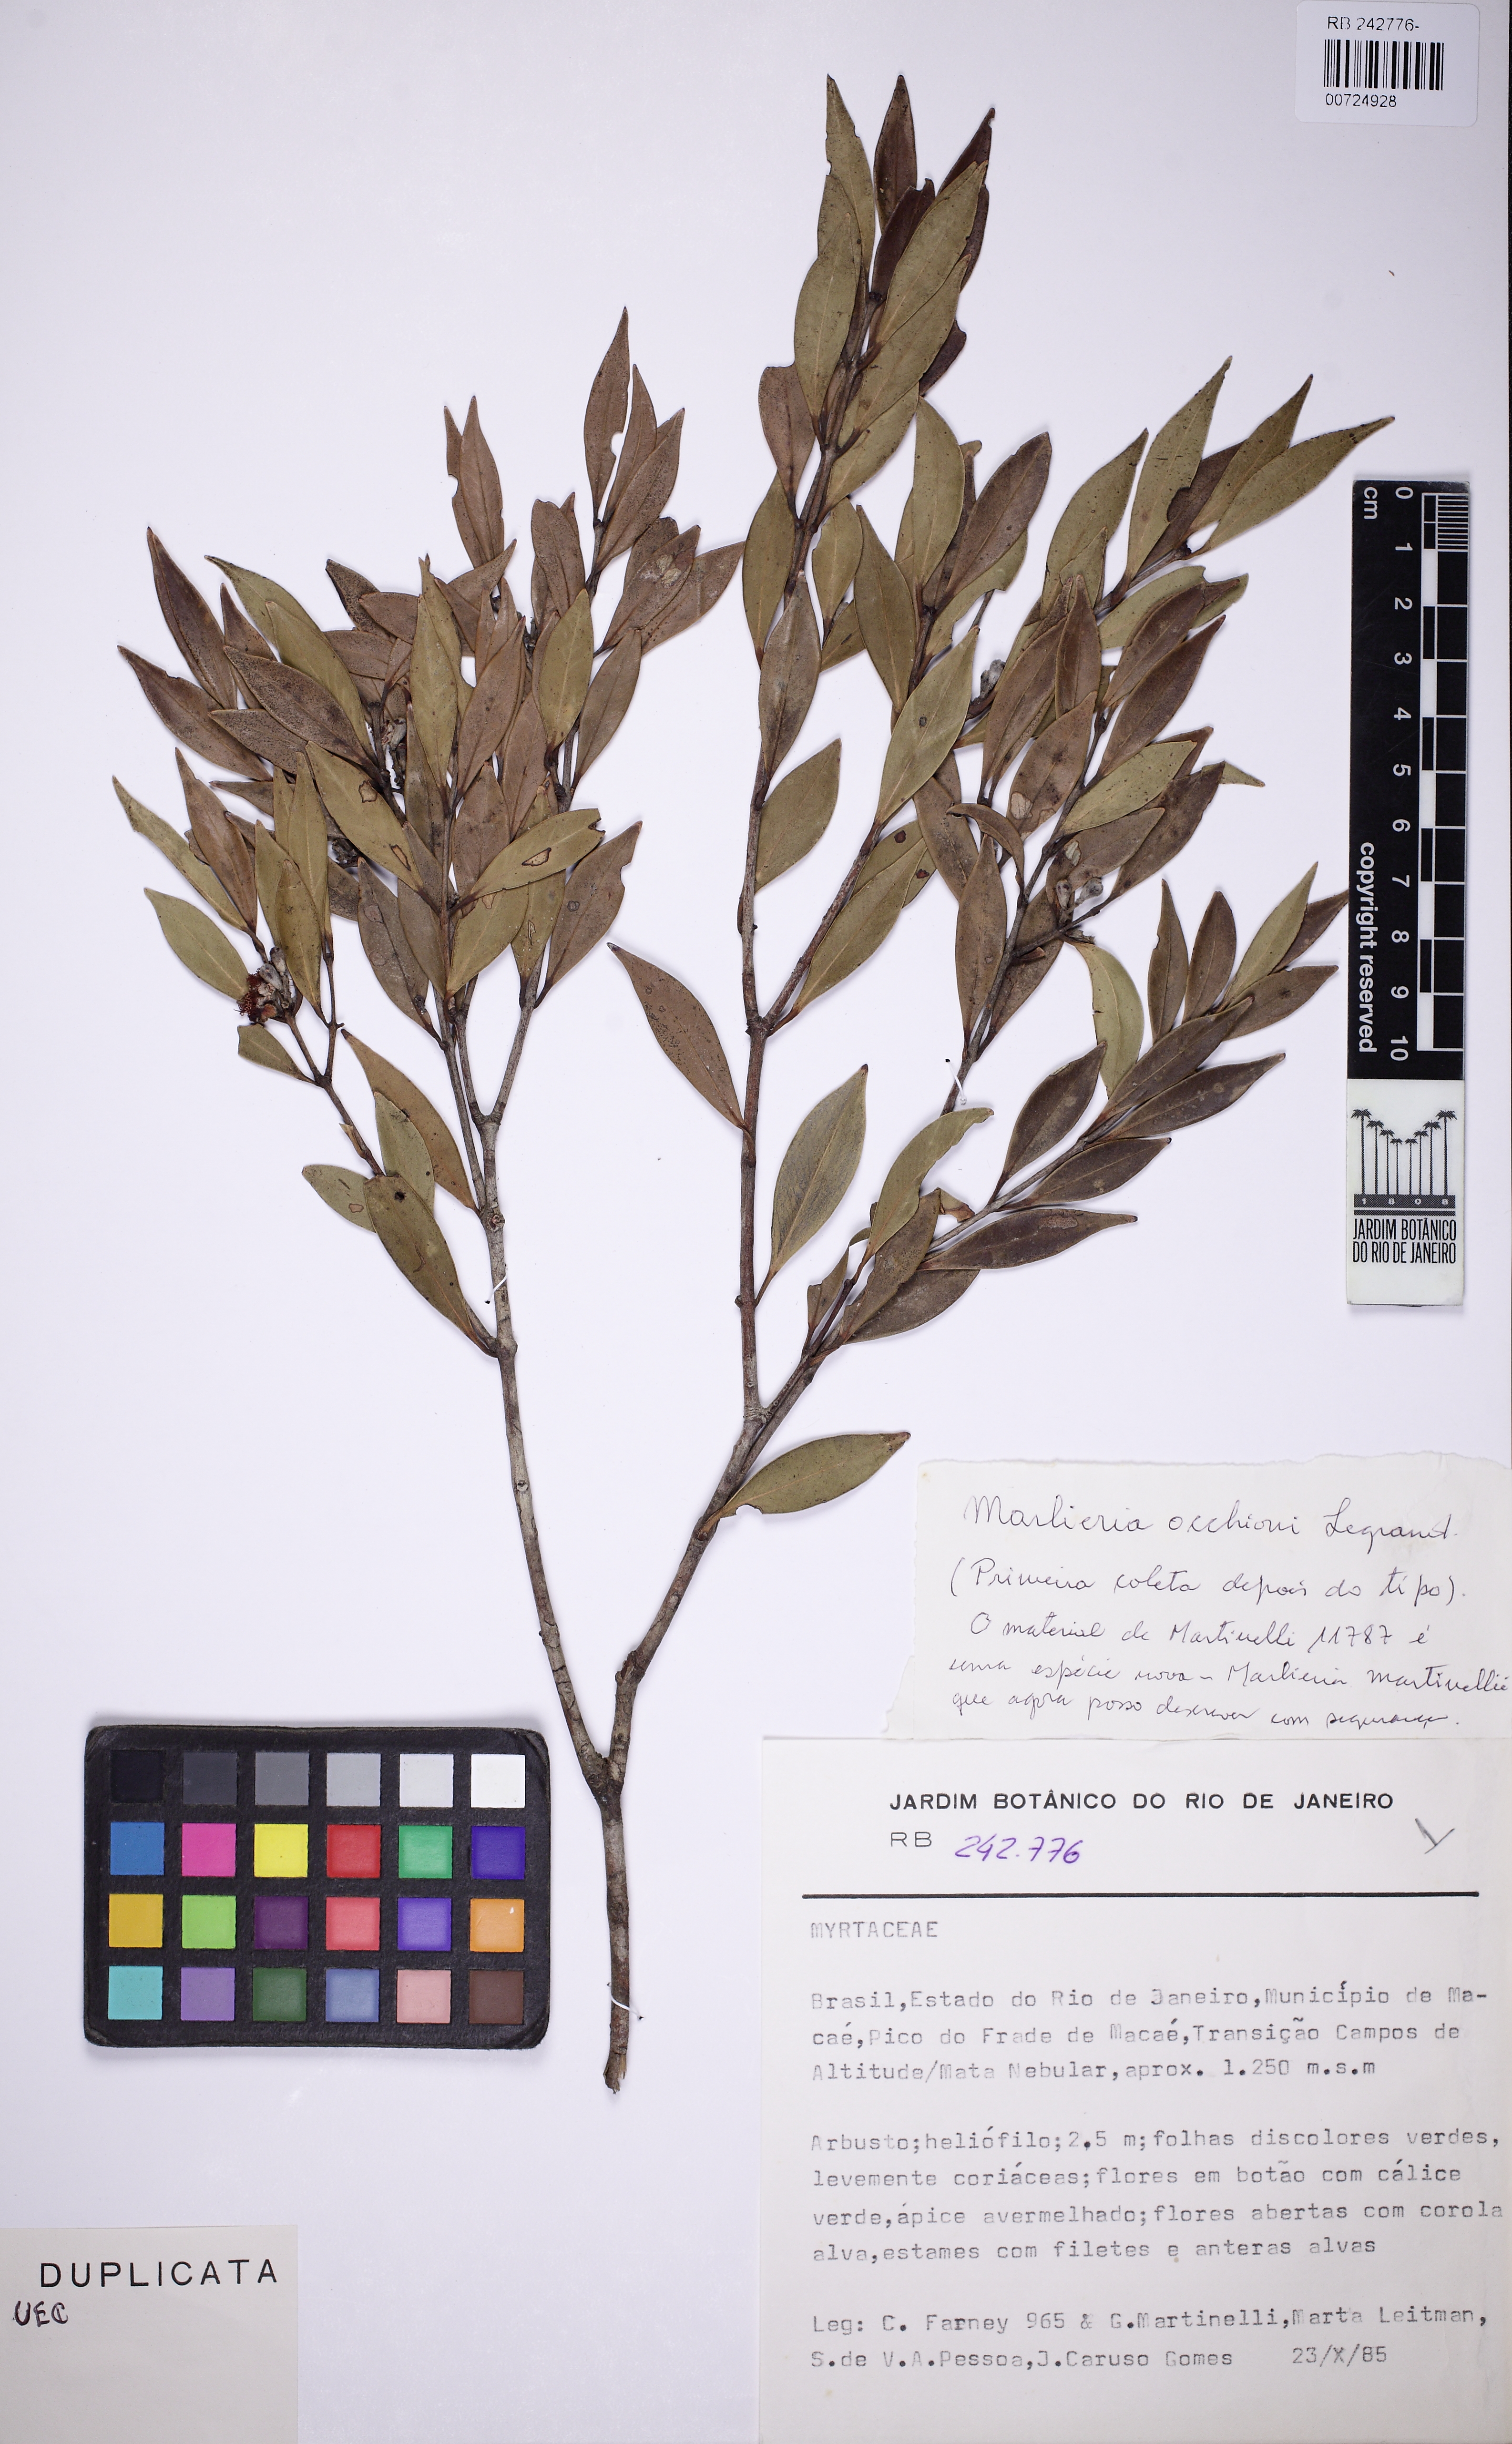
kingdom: Plantae
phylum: Tracheophyta
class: Magnoliopsida
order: Myrtales
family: Myrtaceae
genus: Marlierea
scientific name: Marlierea occhionii
